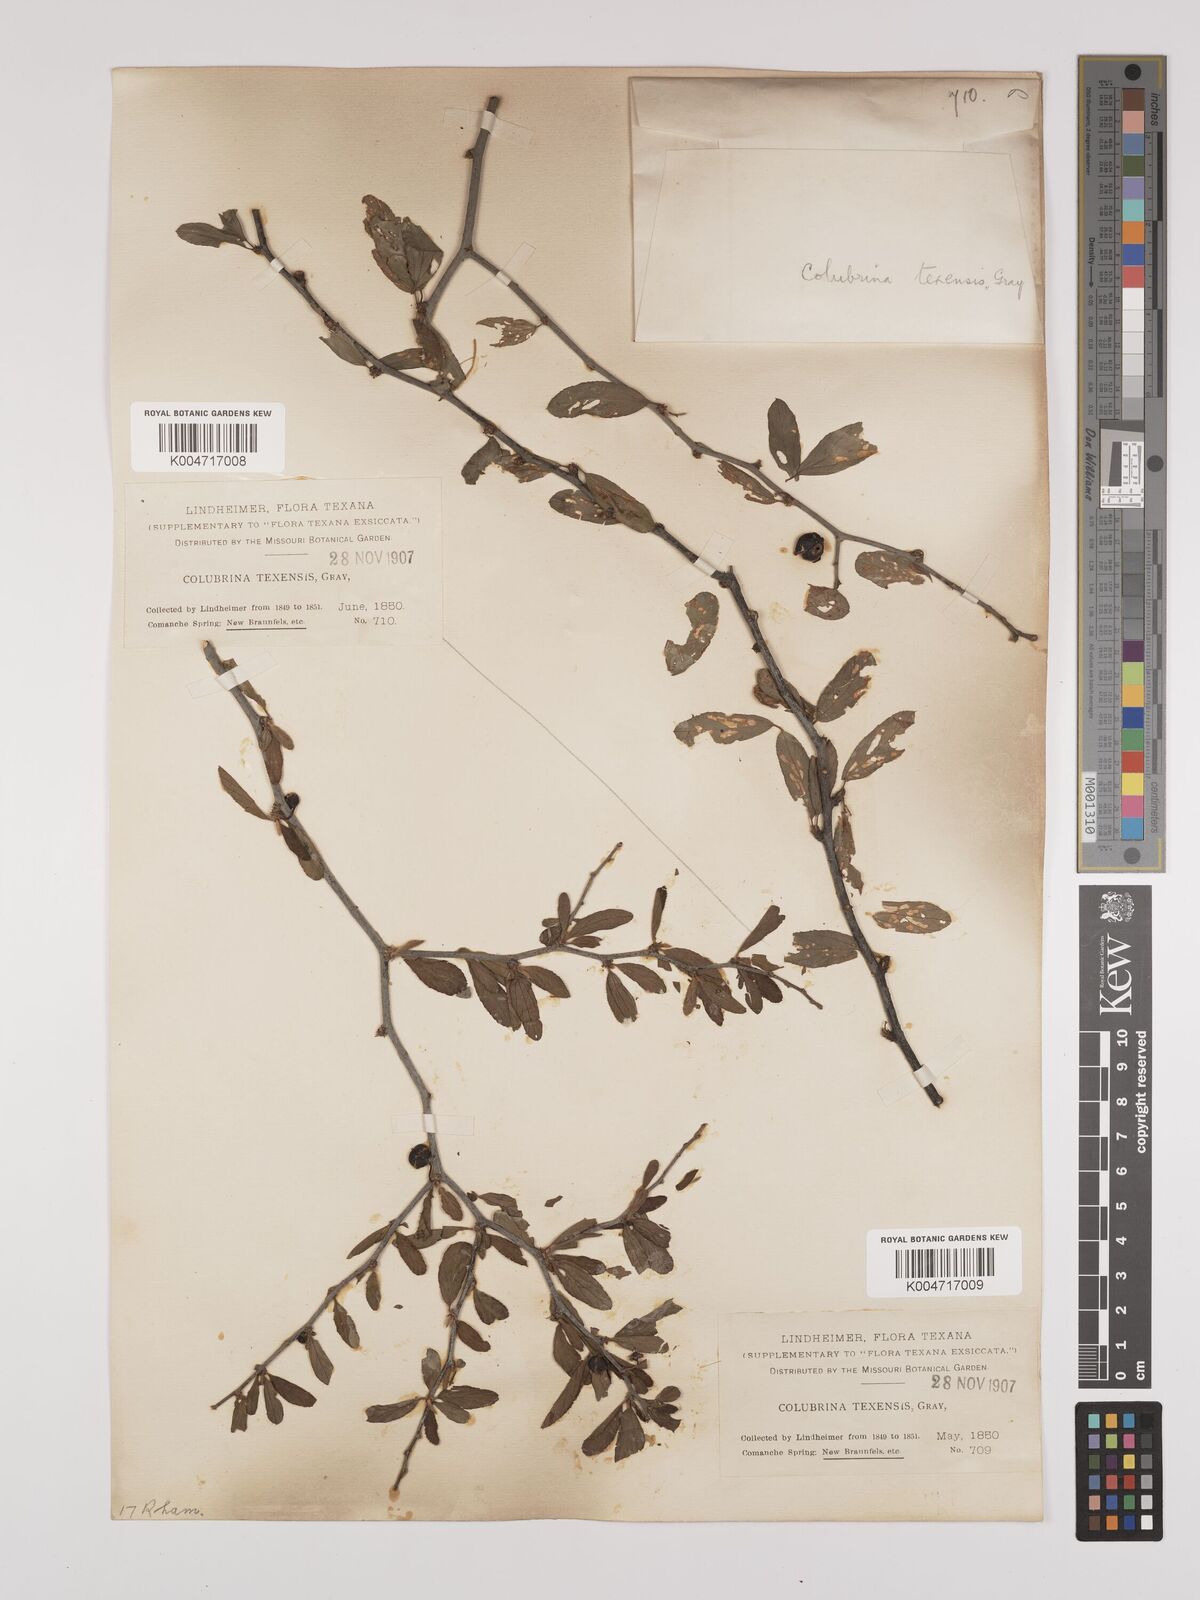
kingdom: Plantae
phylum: Tracheophyta
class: Magnoliopsida
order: Rosales
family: Rhamnaceae
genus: Colubrina
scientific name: Colubrina texensis
